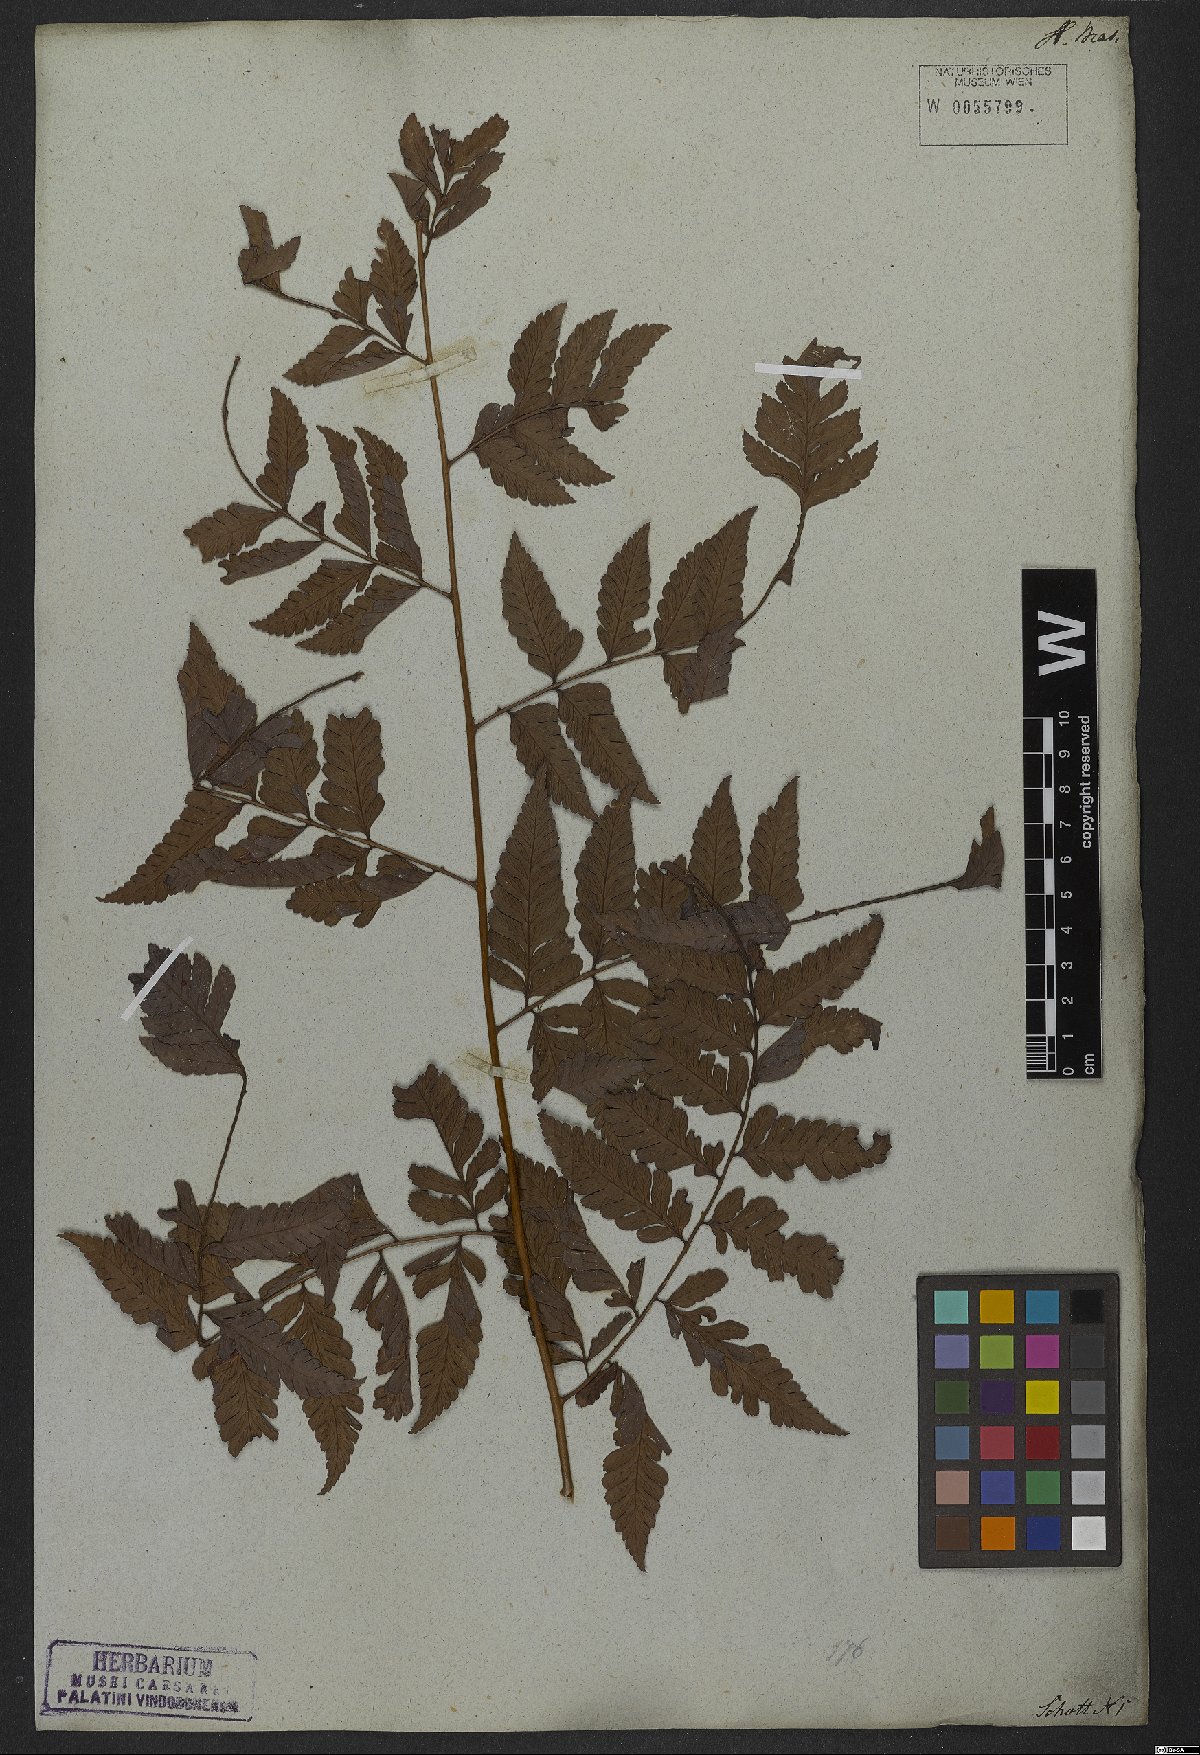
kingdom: Plantae
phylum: Tracheophyta
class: Polypodiopsida
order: Polypodiales
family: Dryopteridaceae
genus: Polybotrya
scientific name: Polybotrya osmundacea
